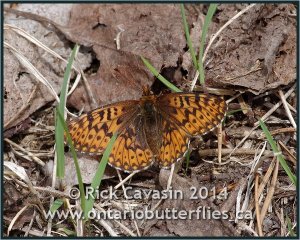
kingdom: Animalia
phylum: Arthropoda
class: Insecta
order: Lepidoptera
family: Nymphalidae
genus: Boloria
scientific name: Boloria freija
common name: Freija Fritillary
